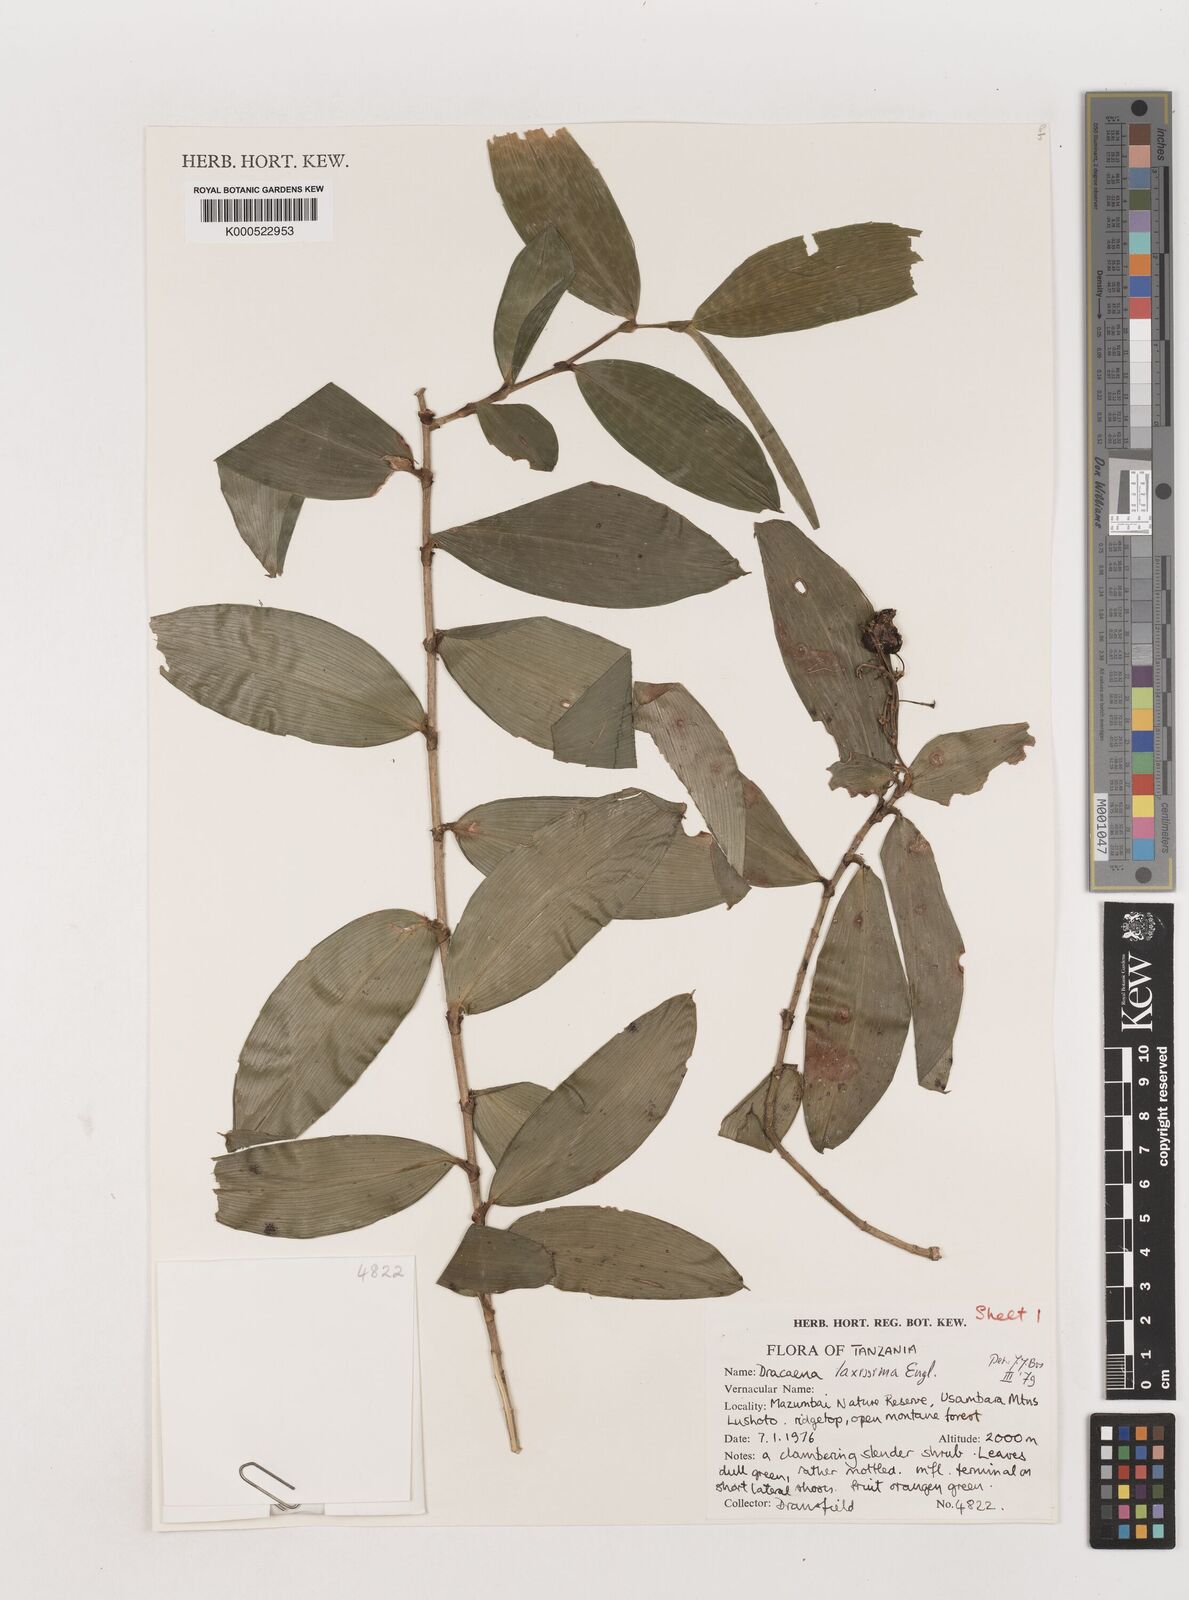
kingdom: Plantae
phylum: Tracheophyta
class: Liliopsida
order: Asparagales
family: Asparagaceae
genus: Dracaena
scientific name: Dracaena laxissima
